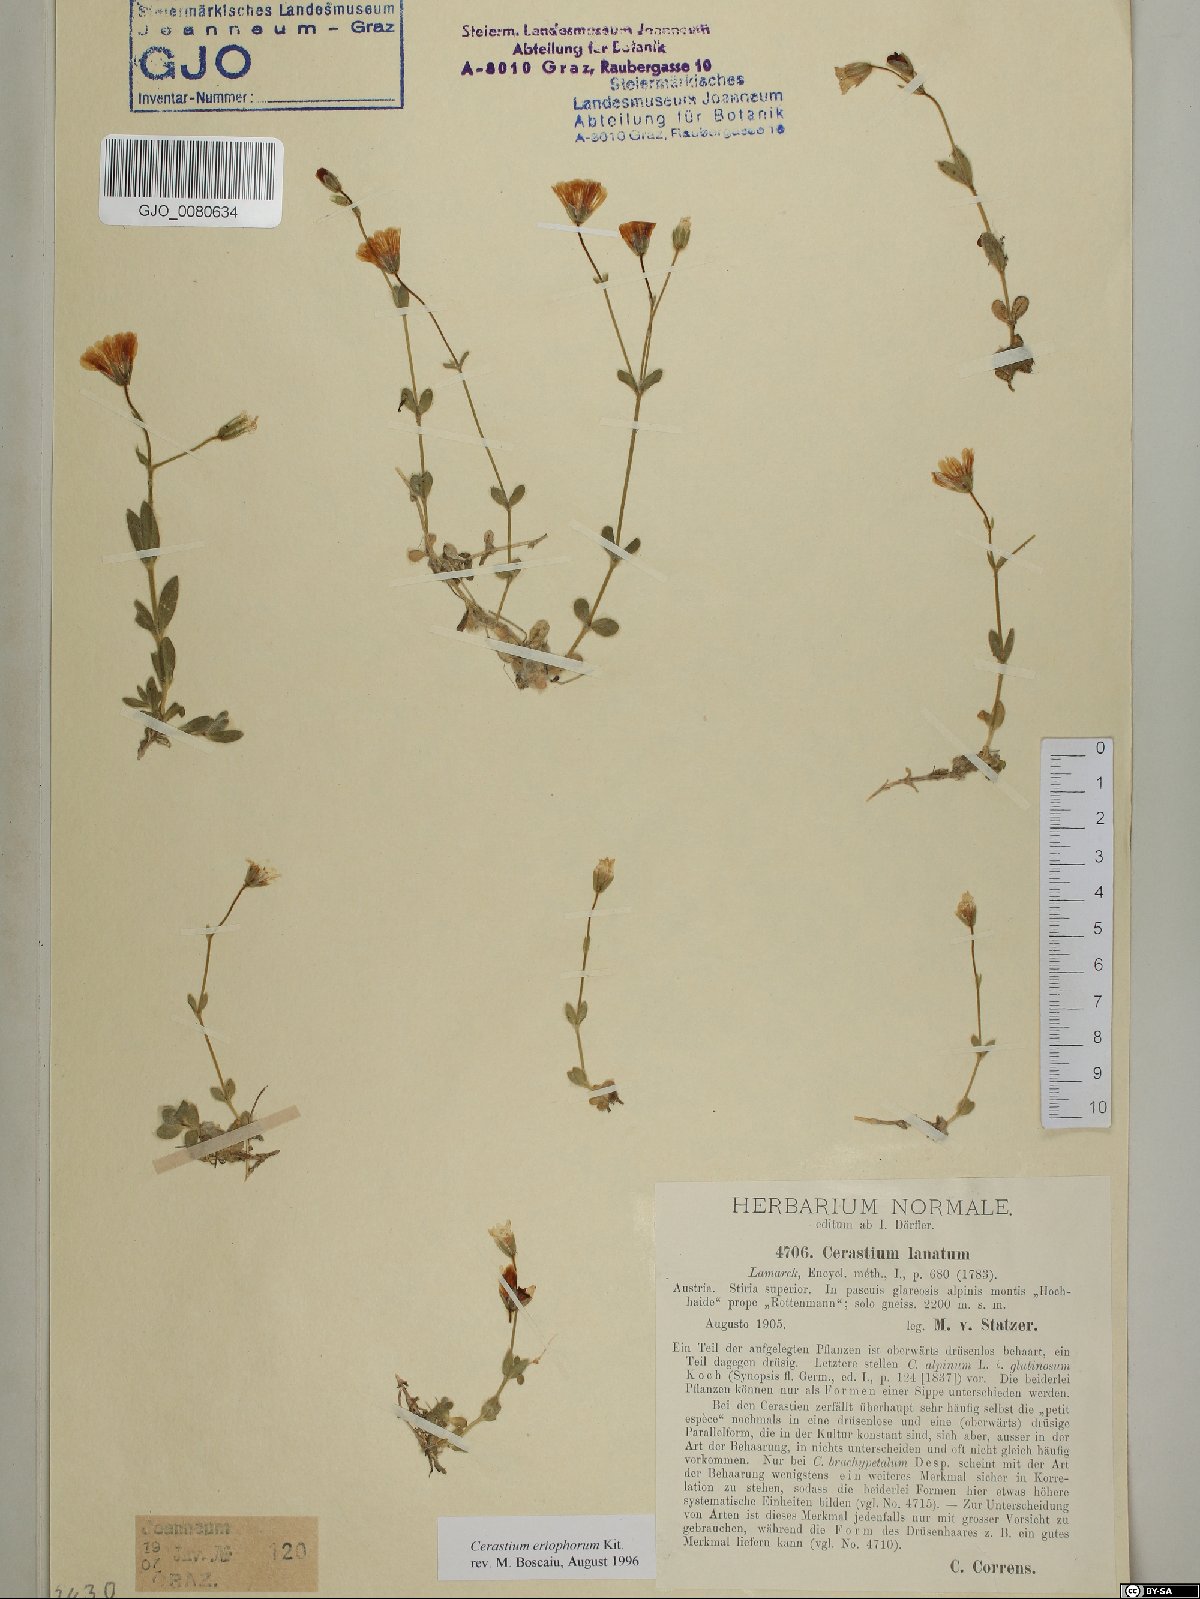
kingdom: Plantae
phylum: Tracheophyta
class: Magnoliopsida
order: Caryophyllales
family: Caryophyllaceae
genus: Cerastium
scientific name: Cerastium eriophorum
